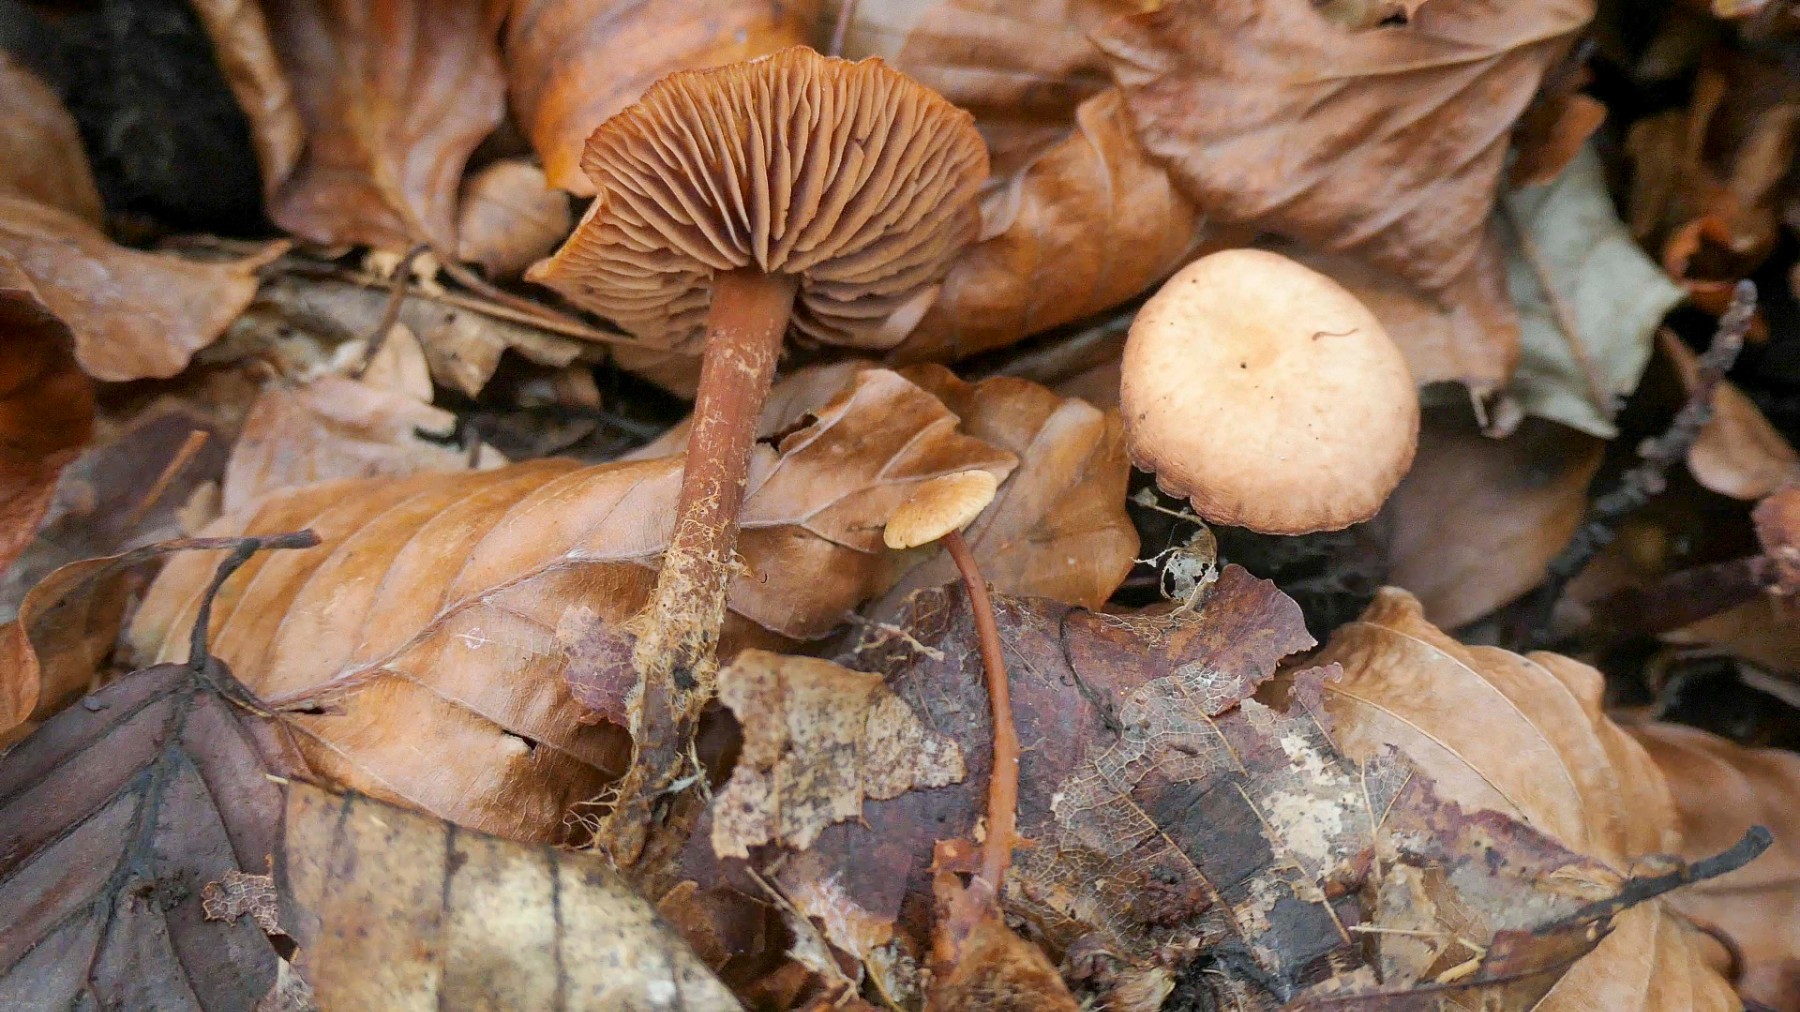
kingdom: Fungi
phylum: Basidiomycota
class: Agaricomycetes
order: Agaricales
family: Omphalotaceae
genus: Gymnopus
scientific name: Gymnopus fagiphilus
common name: bøgeløv-fladhat
